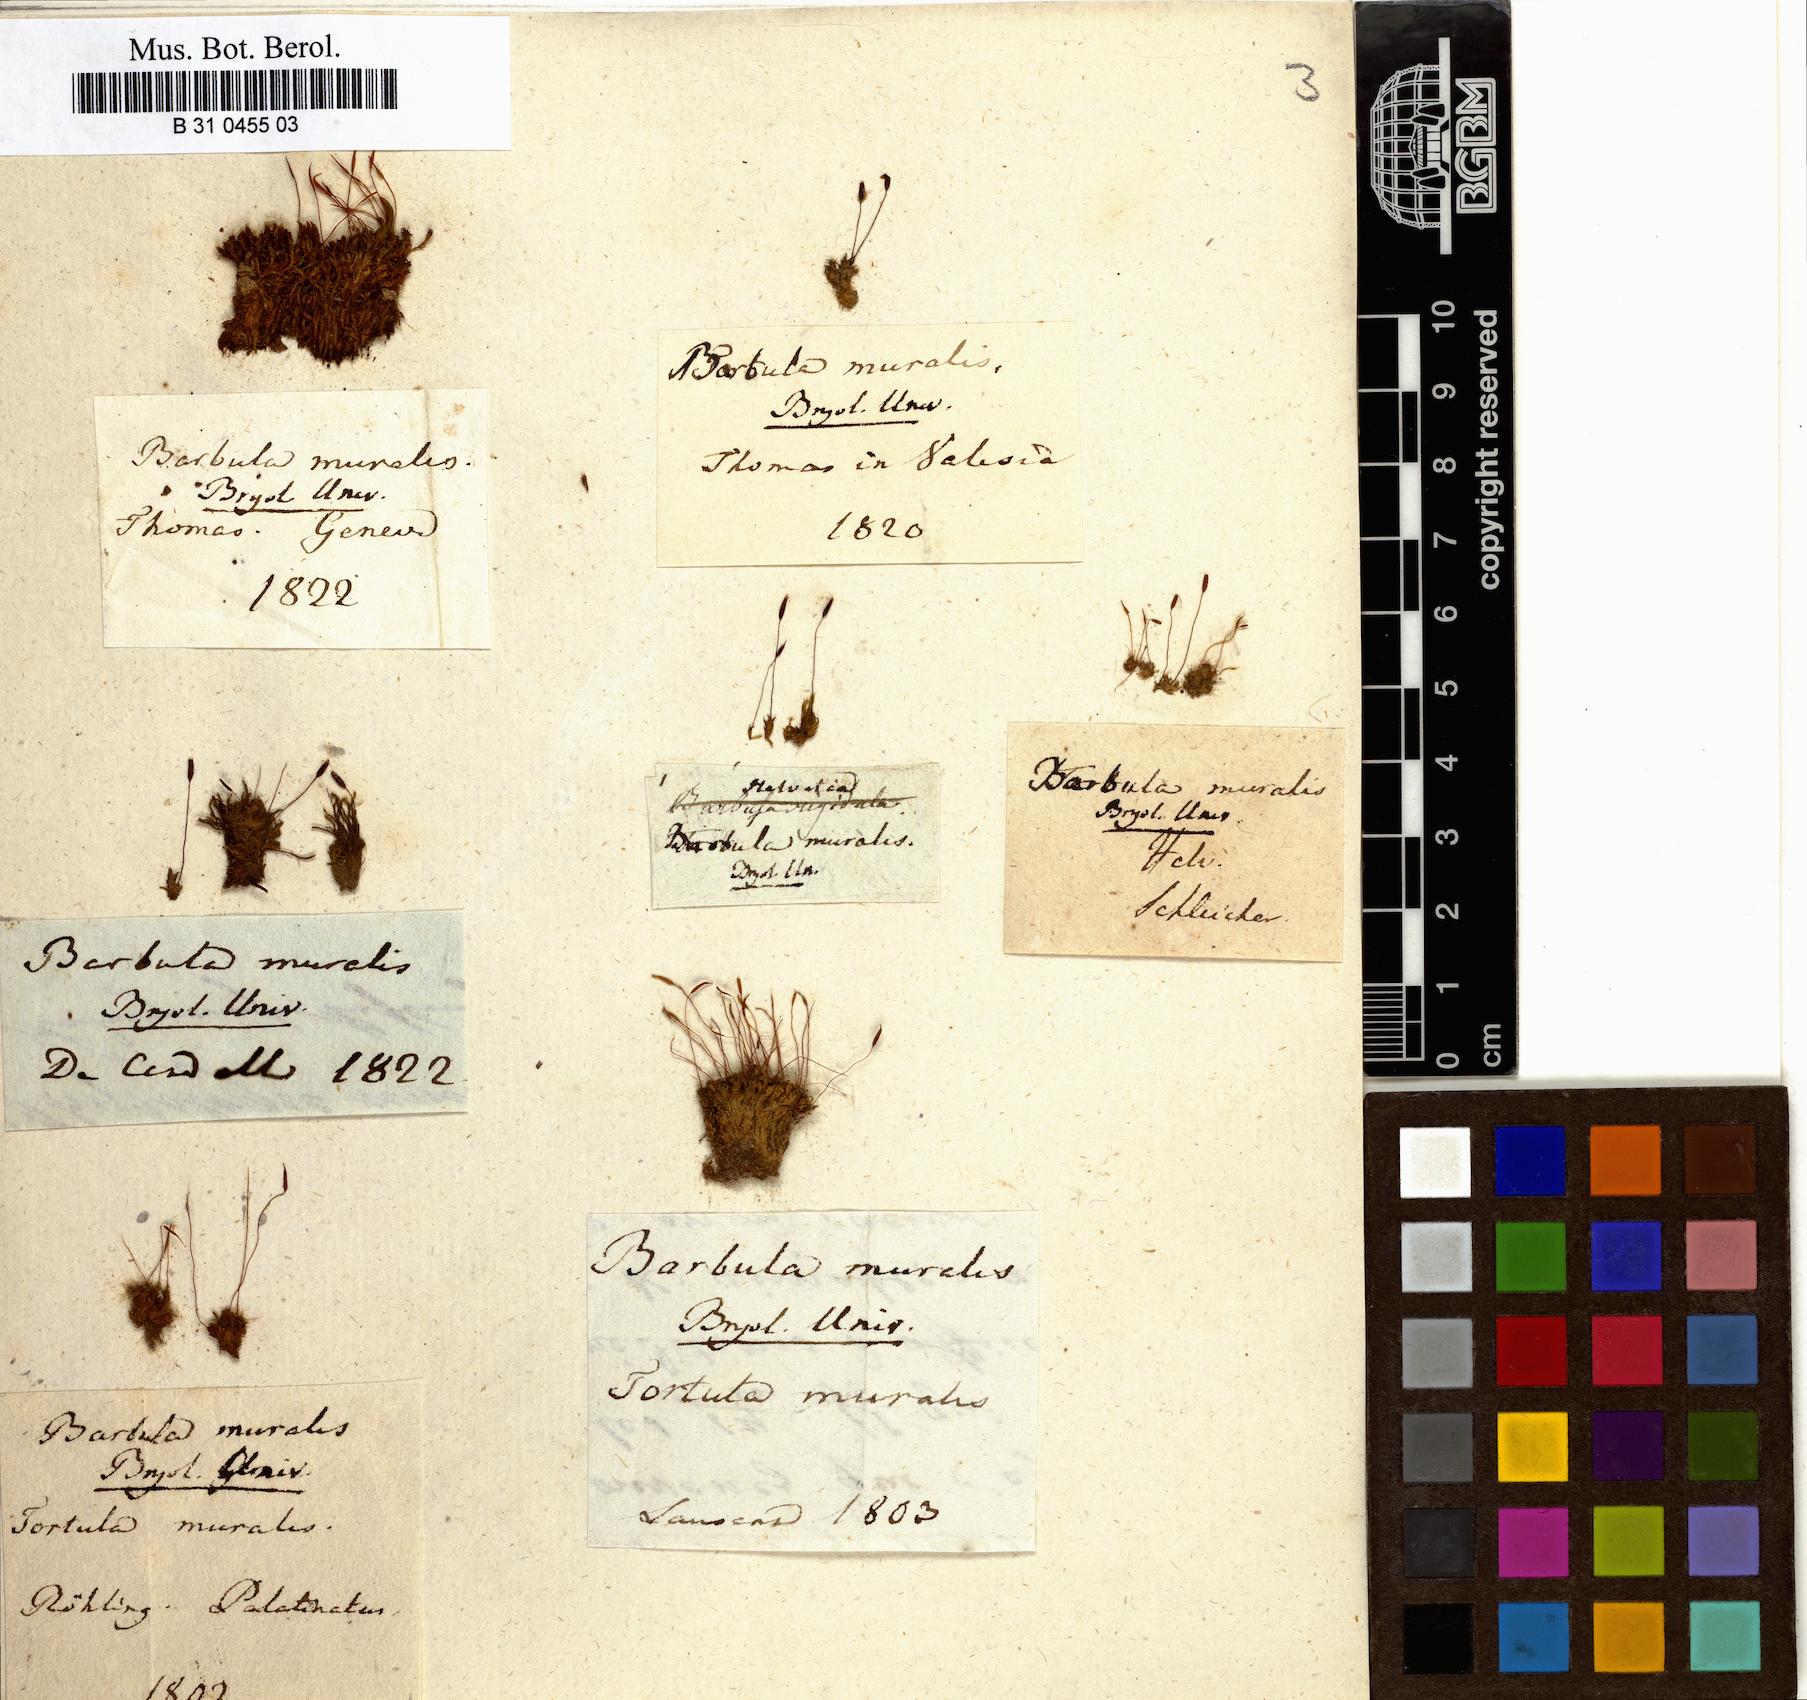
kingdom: Plantae
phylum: Bryophyta
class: Bryopsida
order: Pottiales
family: Pottiaceae
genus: Tortula
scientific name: Tortula muralis
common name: Wall screw-moss
